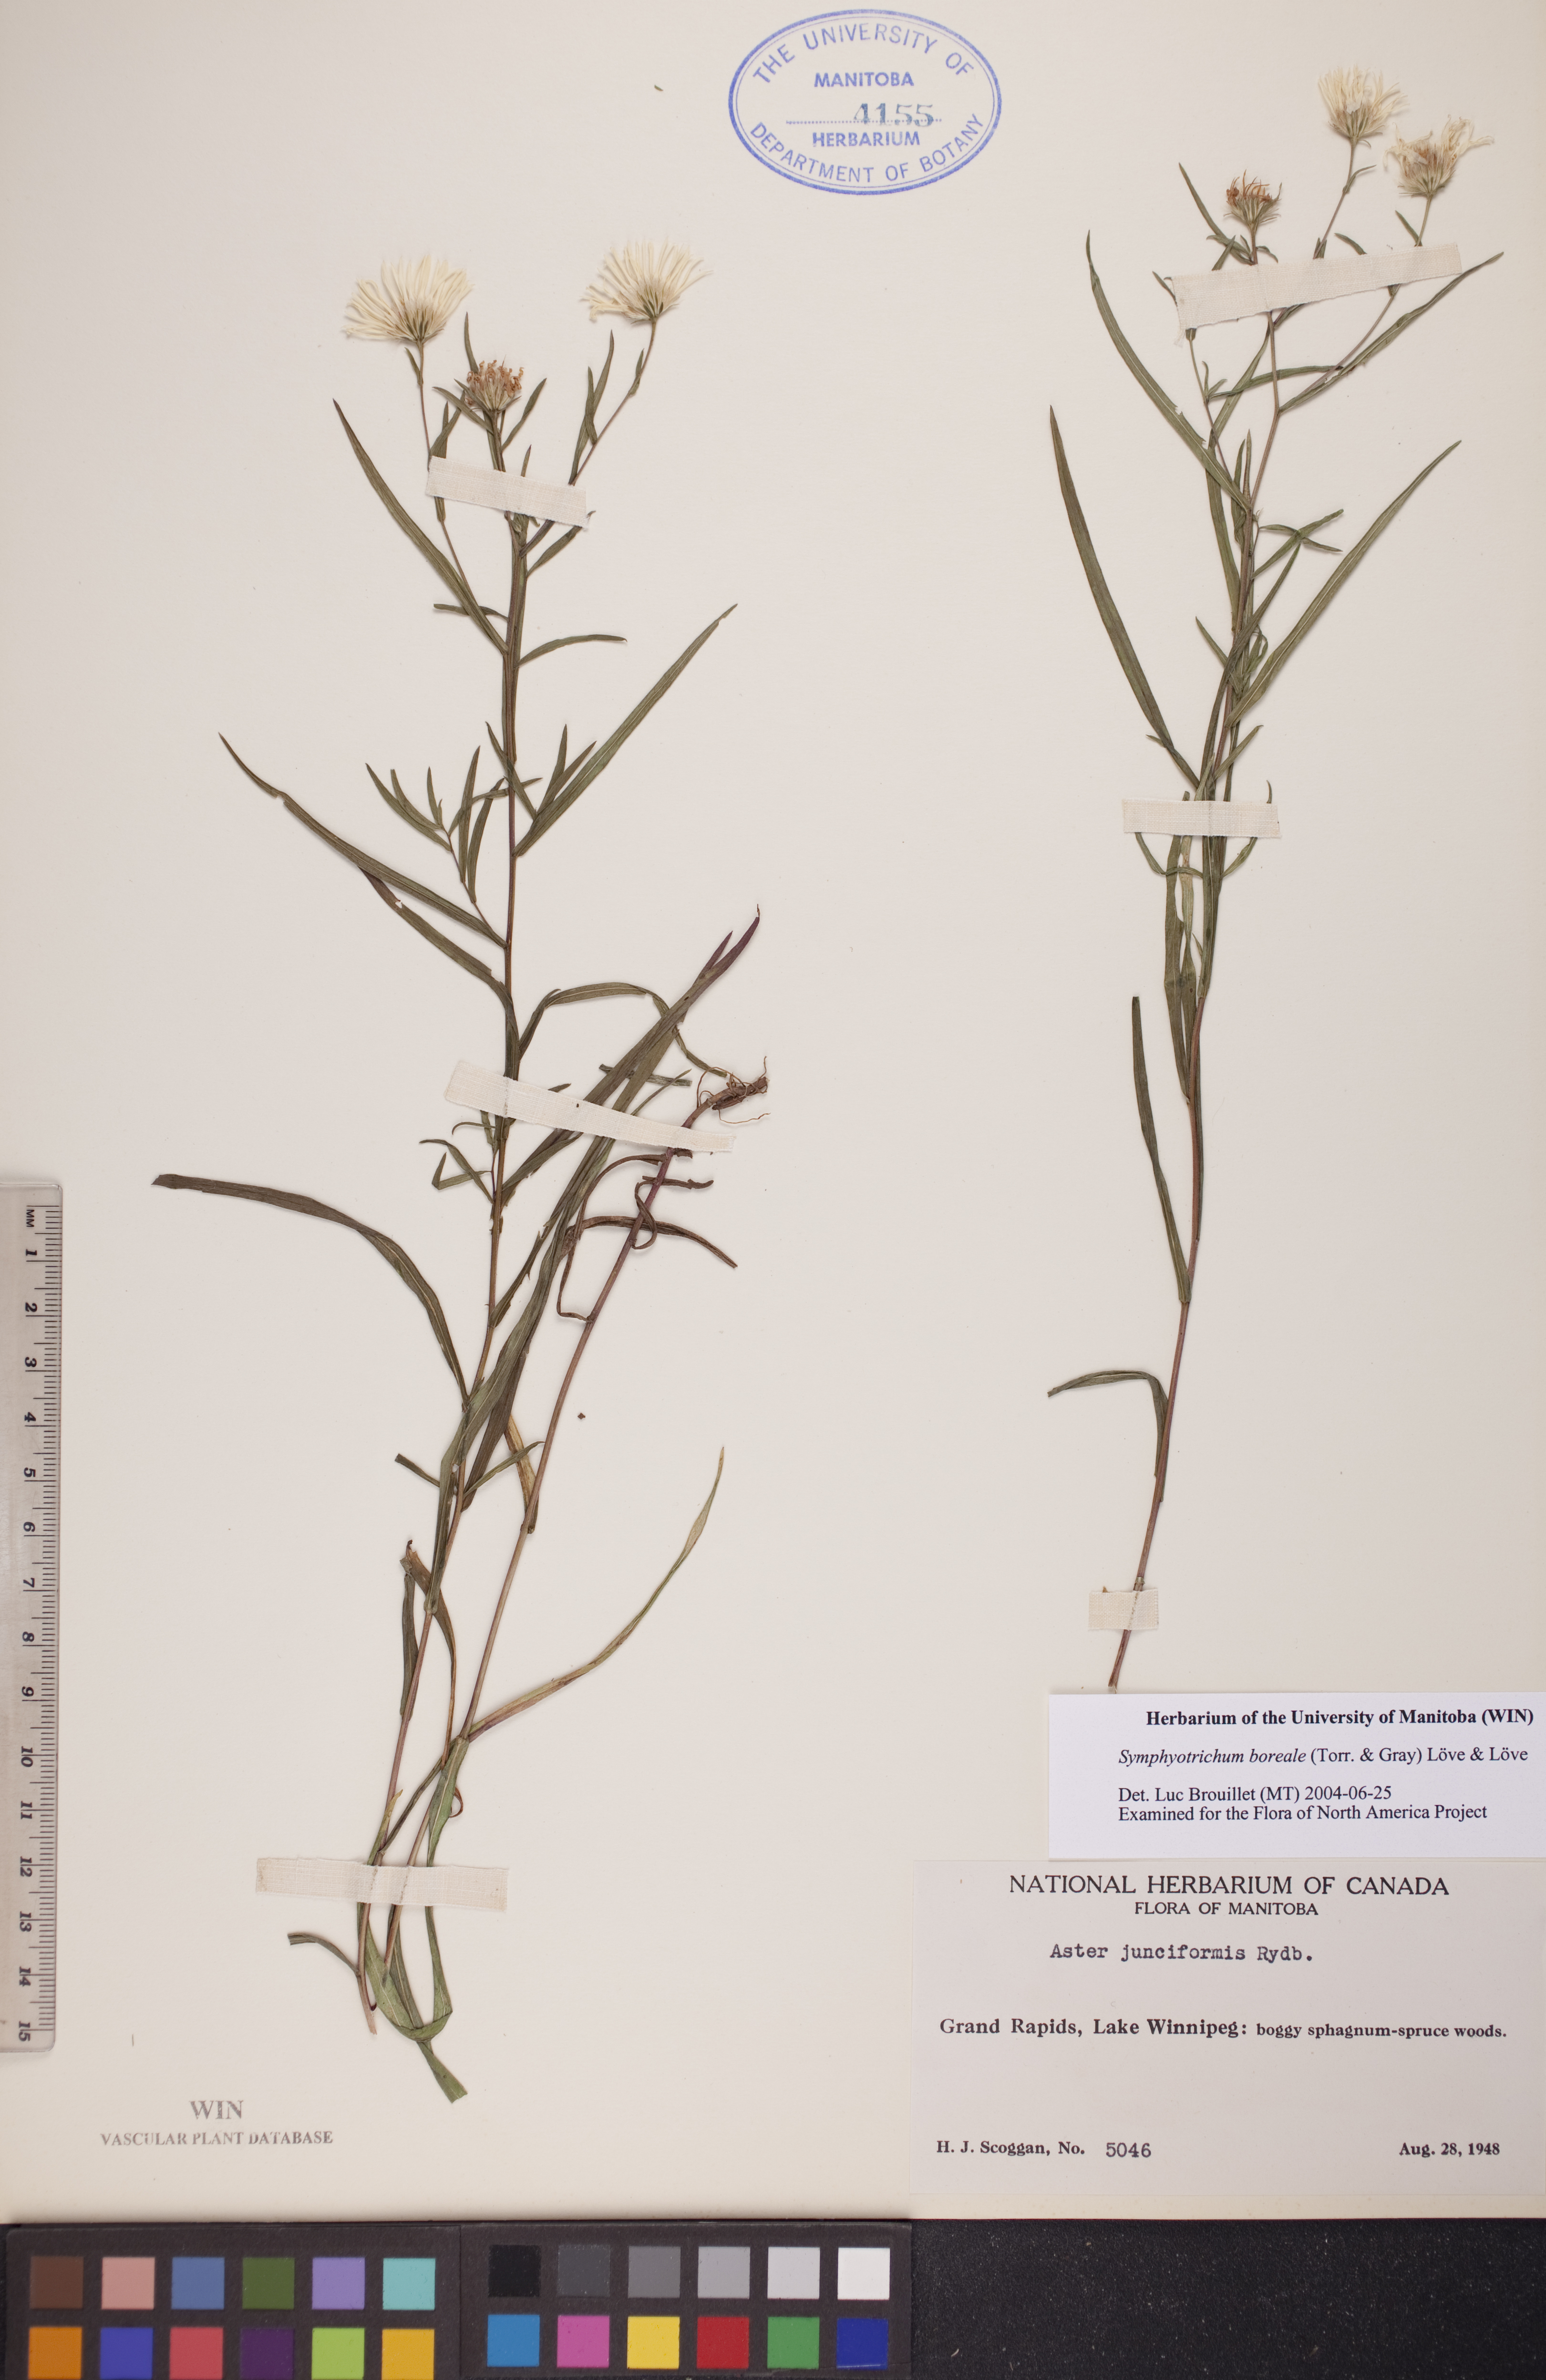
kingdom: Plantae
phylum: Tracheophyta
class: Magnoliopsida
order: Asterales
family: Asteraceae
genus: Symphyotrichum
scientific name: Symphyotrichum boreale
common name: Northern bog aster
